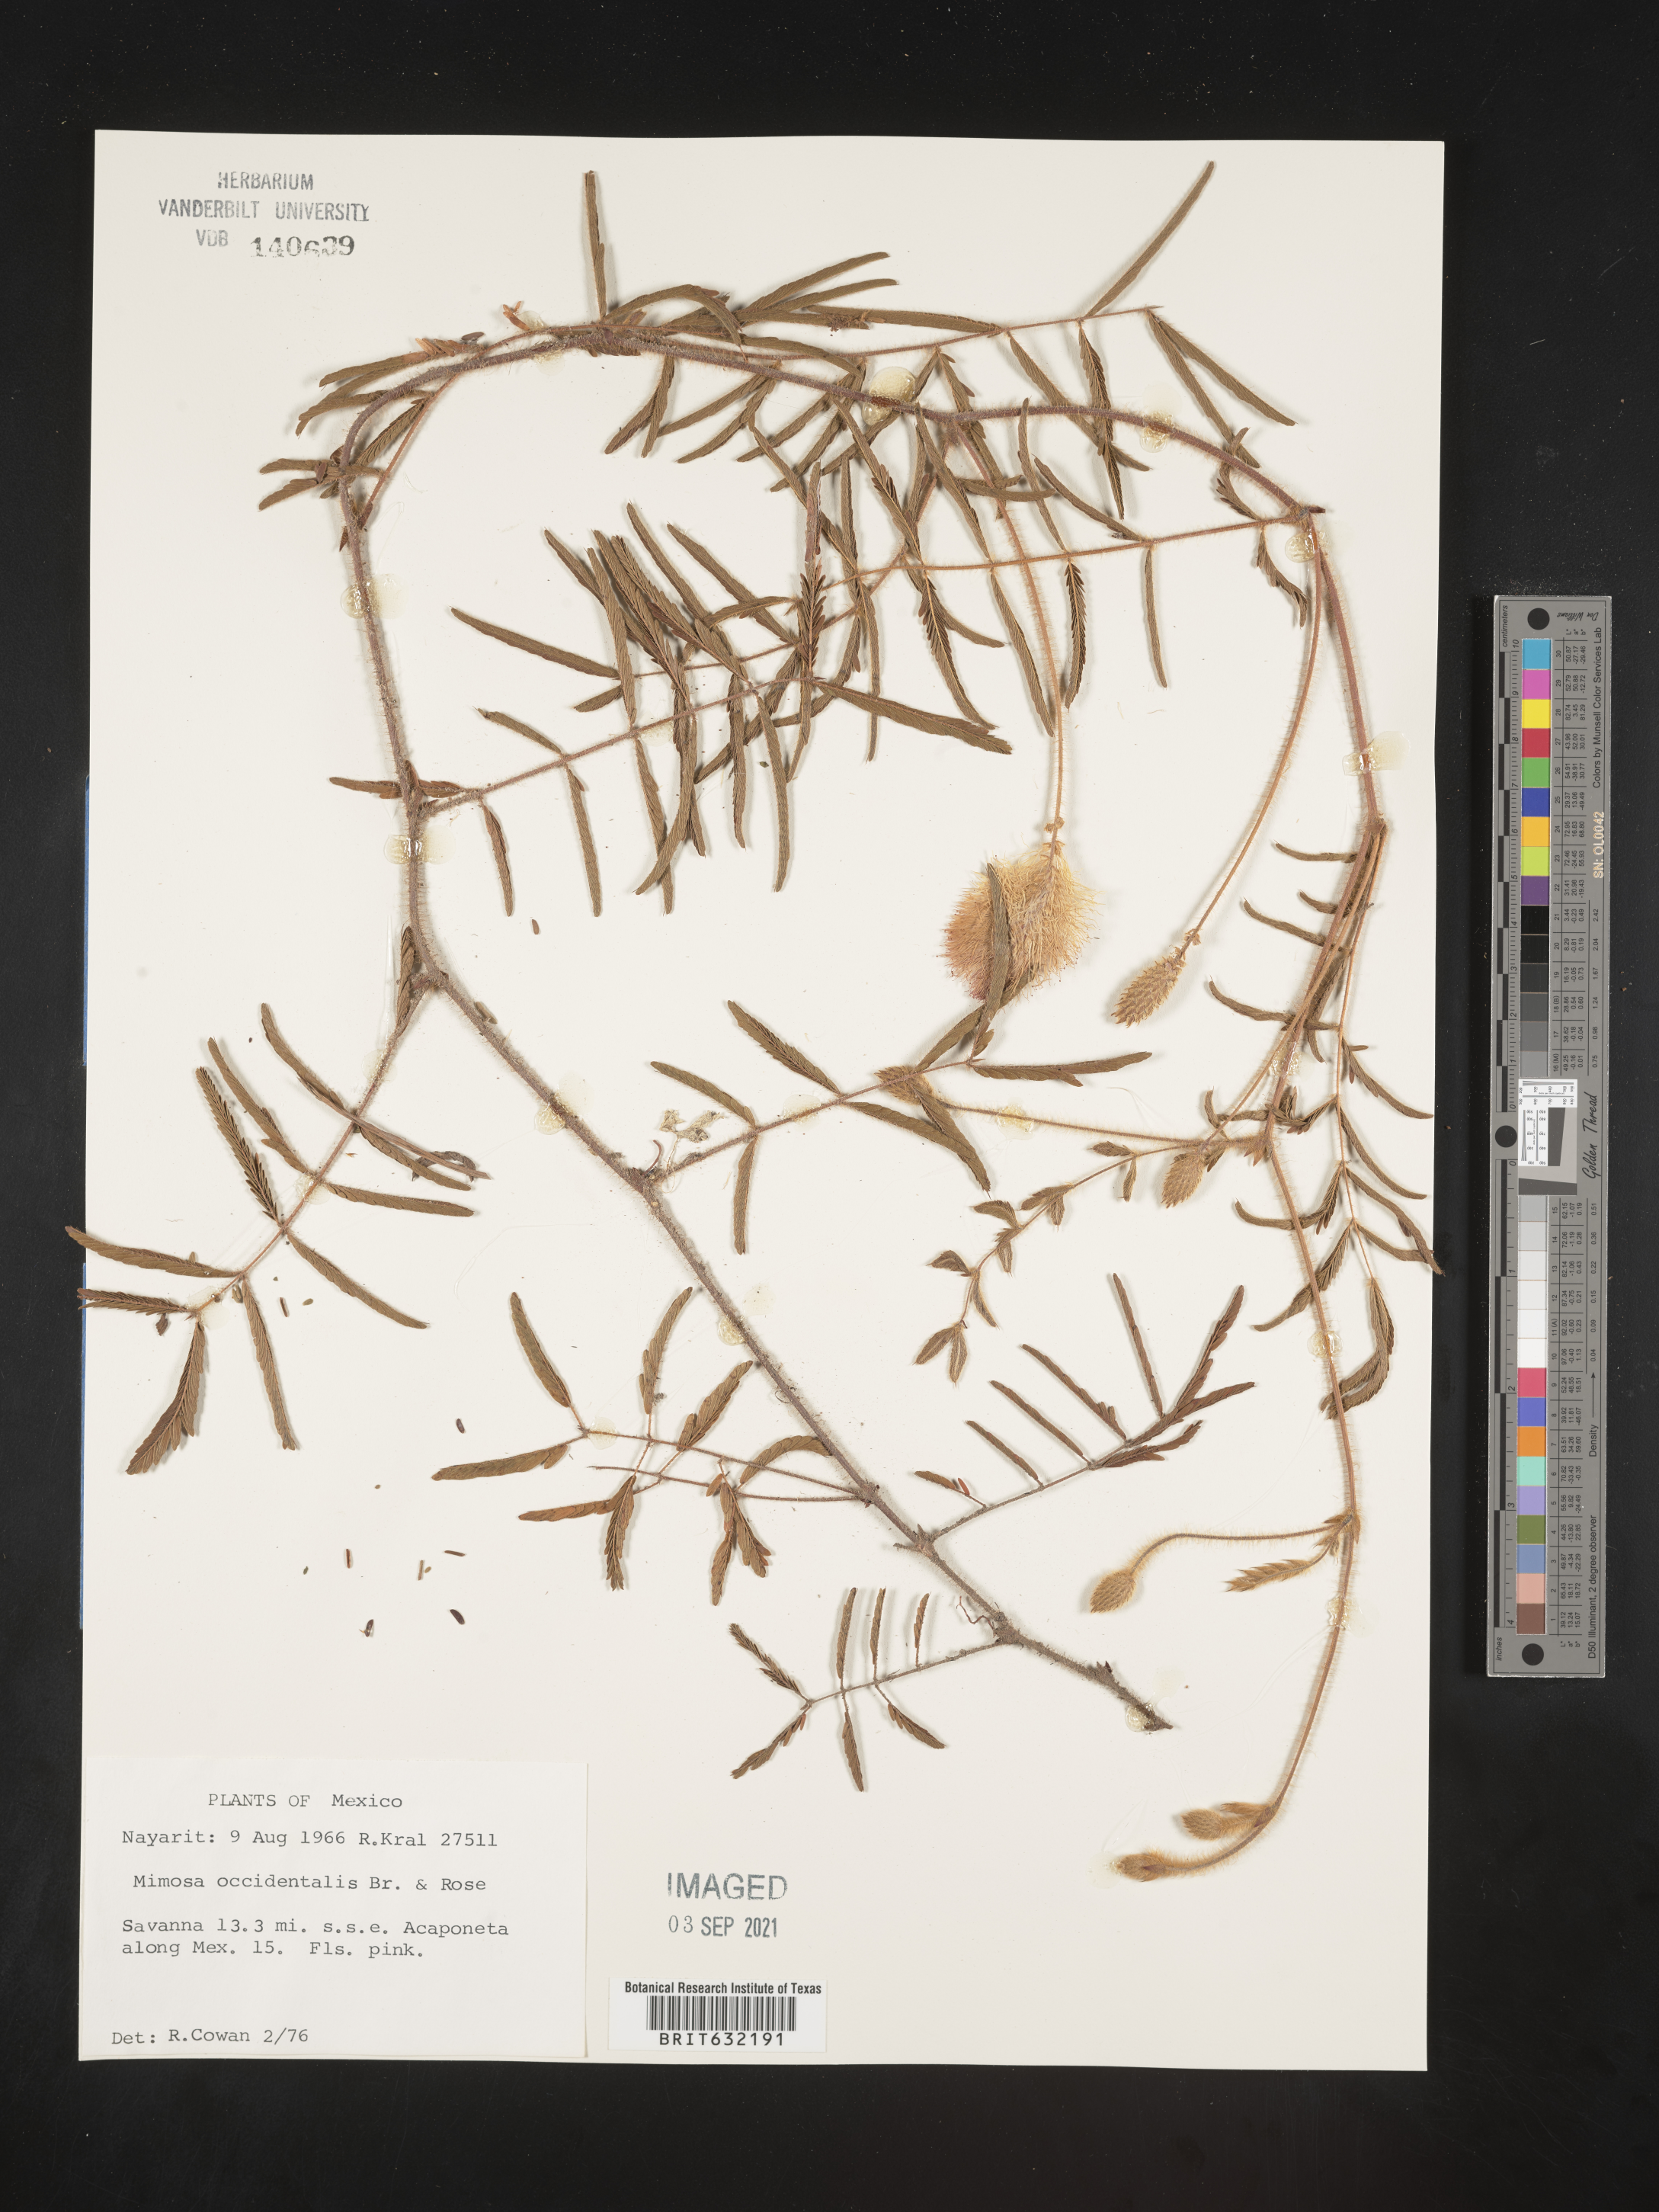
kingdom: Plantae
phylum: Tracheophyta
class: Magnoliopsida
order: Fabales
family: Fabaceae
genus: Mimosa
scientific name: Mimosa
